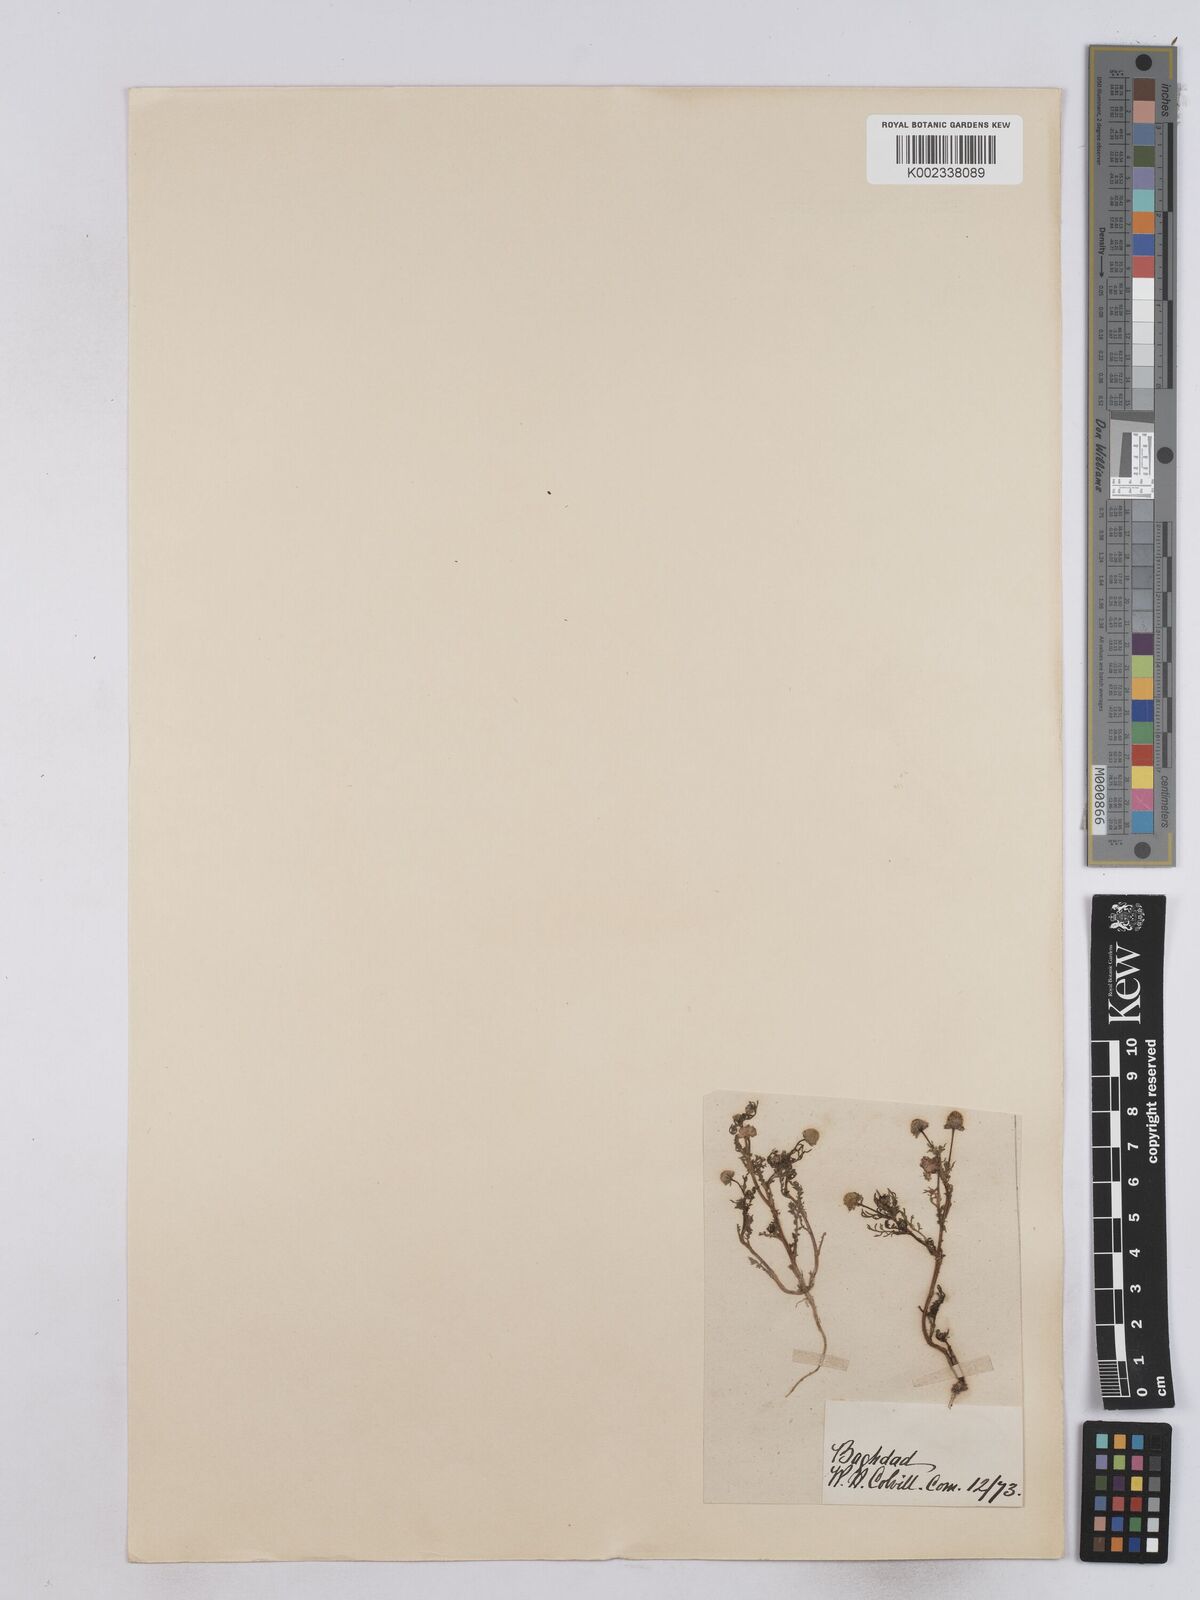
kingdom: Plantae
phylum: Tracheophyta
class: Magnoliopsida
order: Asterales
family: Asteraceae
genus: Matricaria
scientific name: Matricaria aurea
